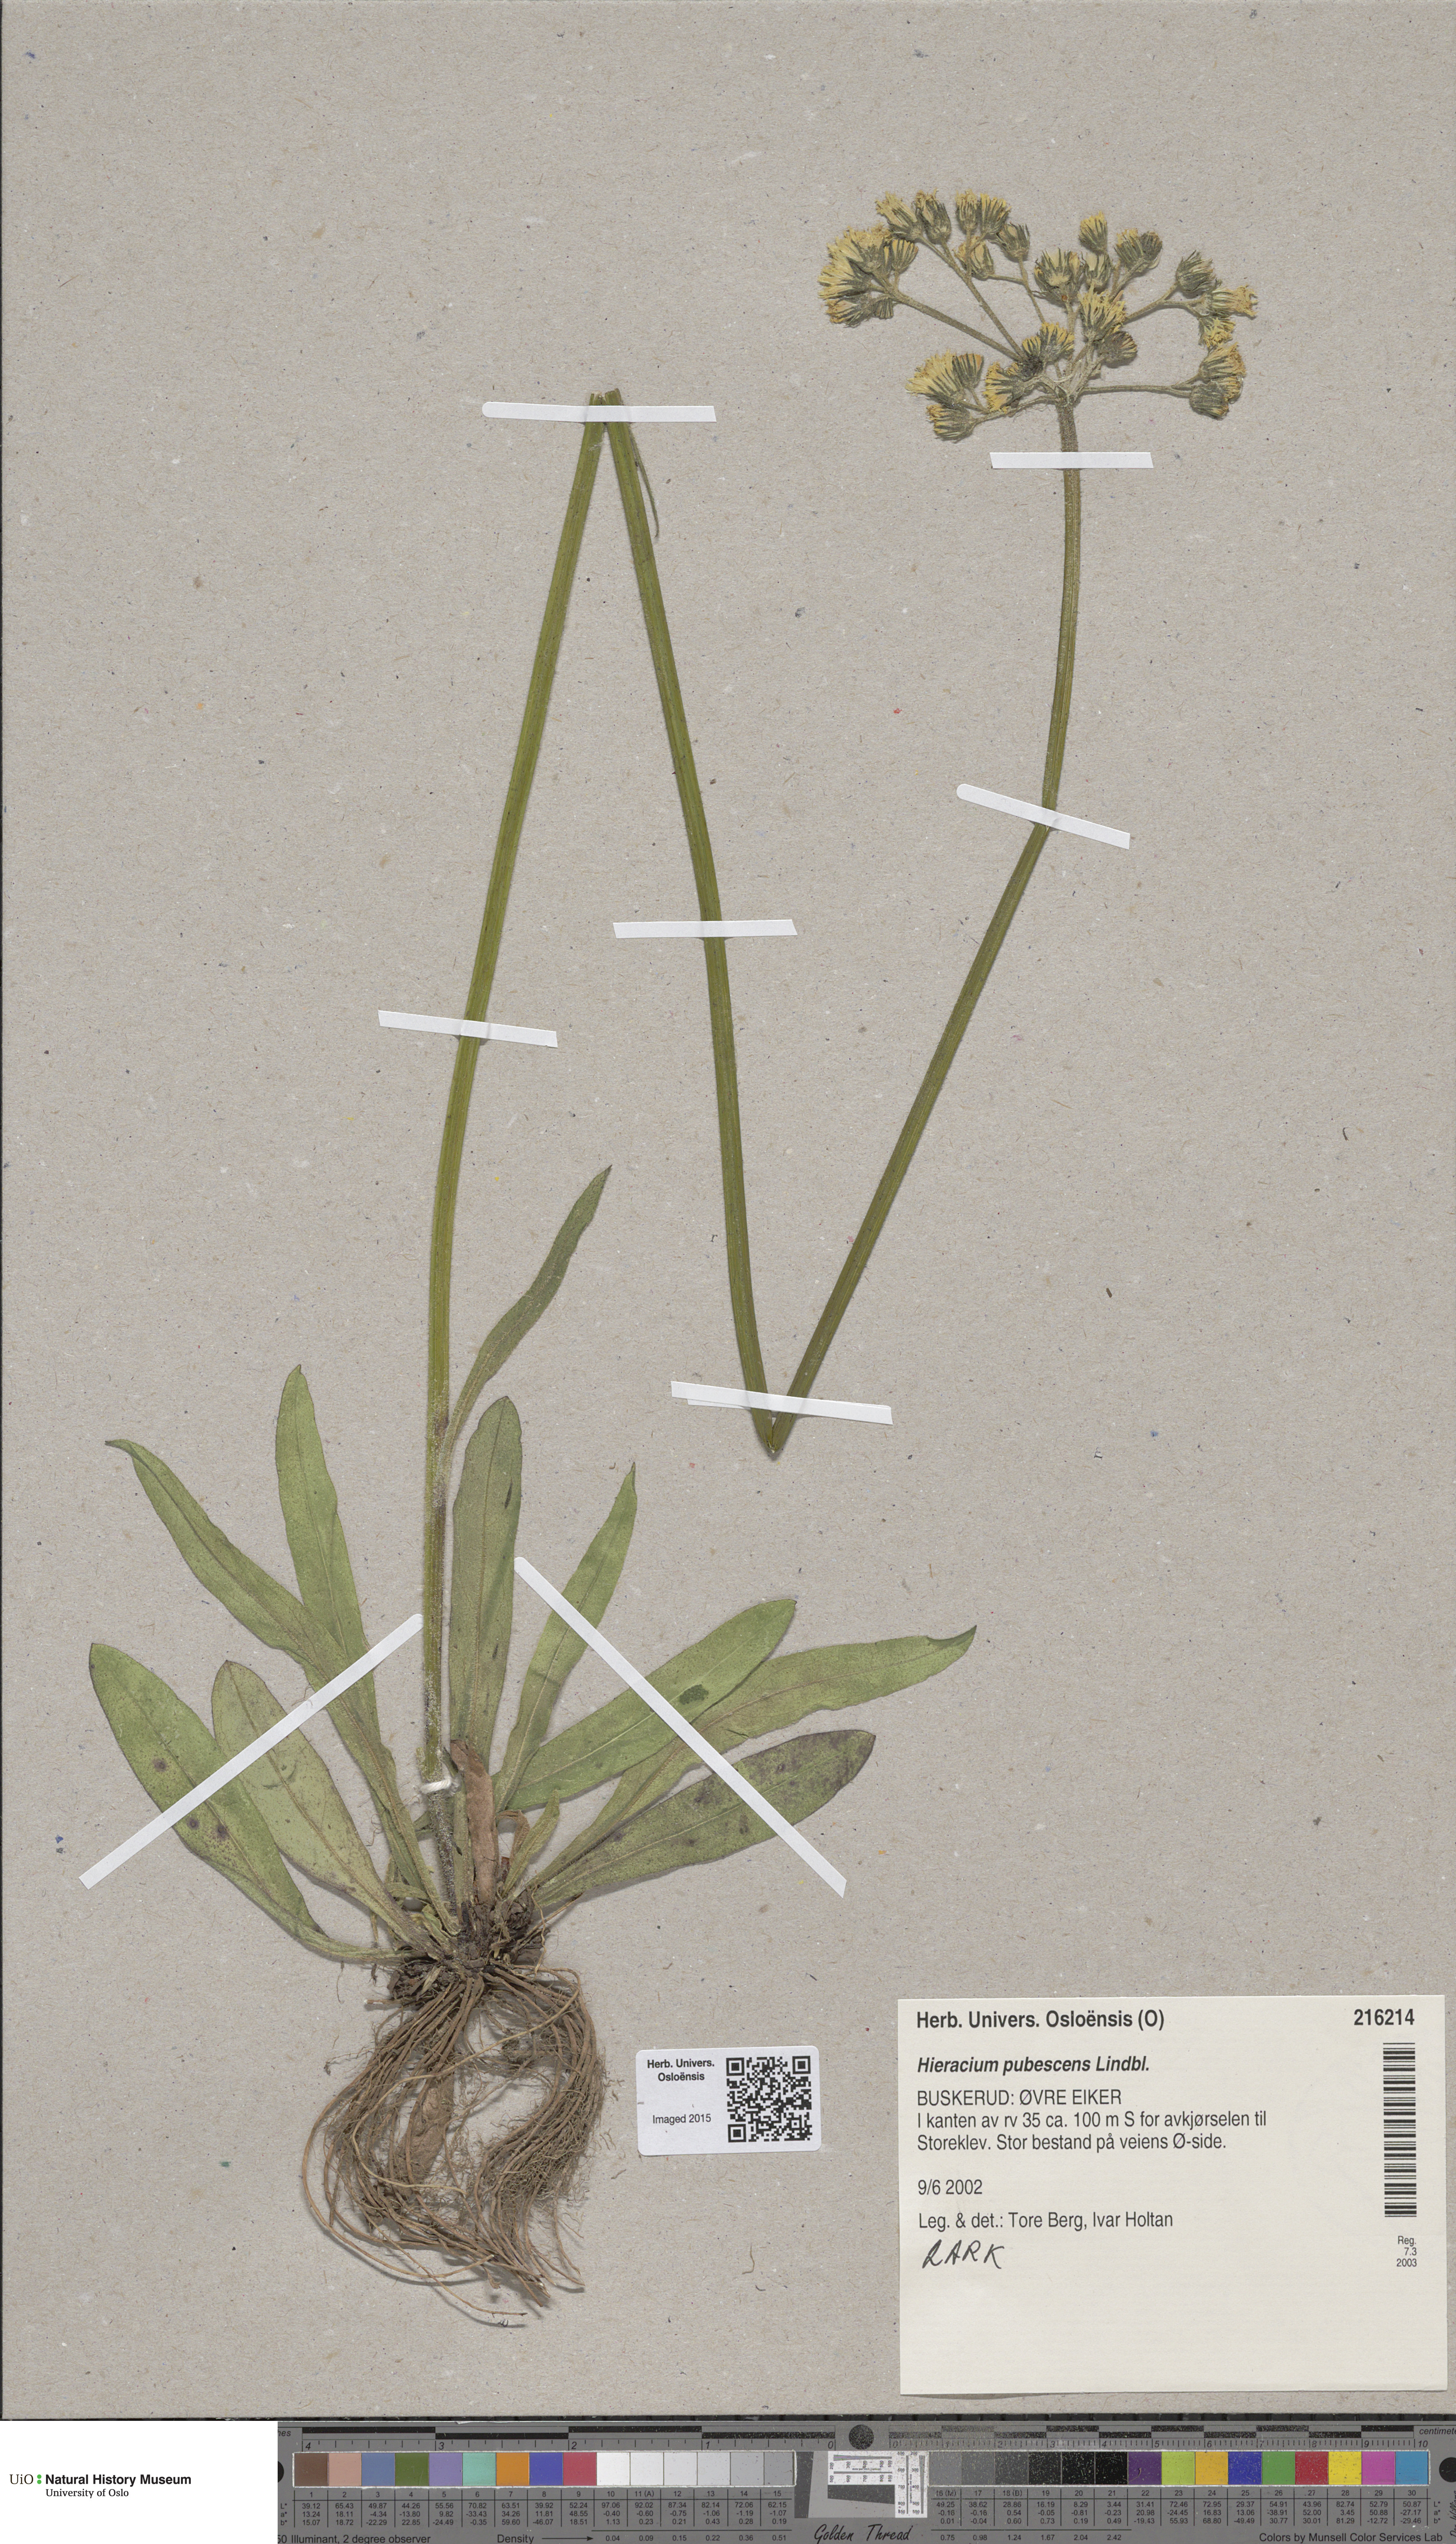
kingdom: Plantae
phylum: Tracheophyta
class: Magnoliopsida
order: Asterales
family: Asteraceae
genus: Pilosella
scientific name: Pilosella cymosa
